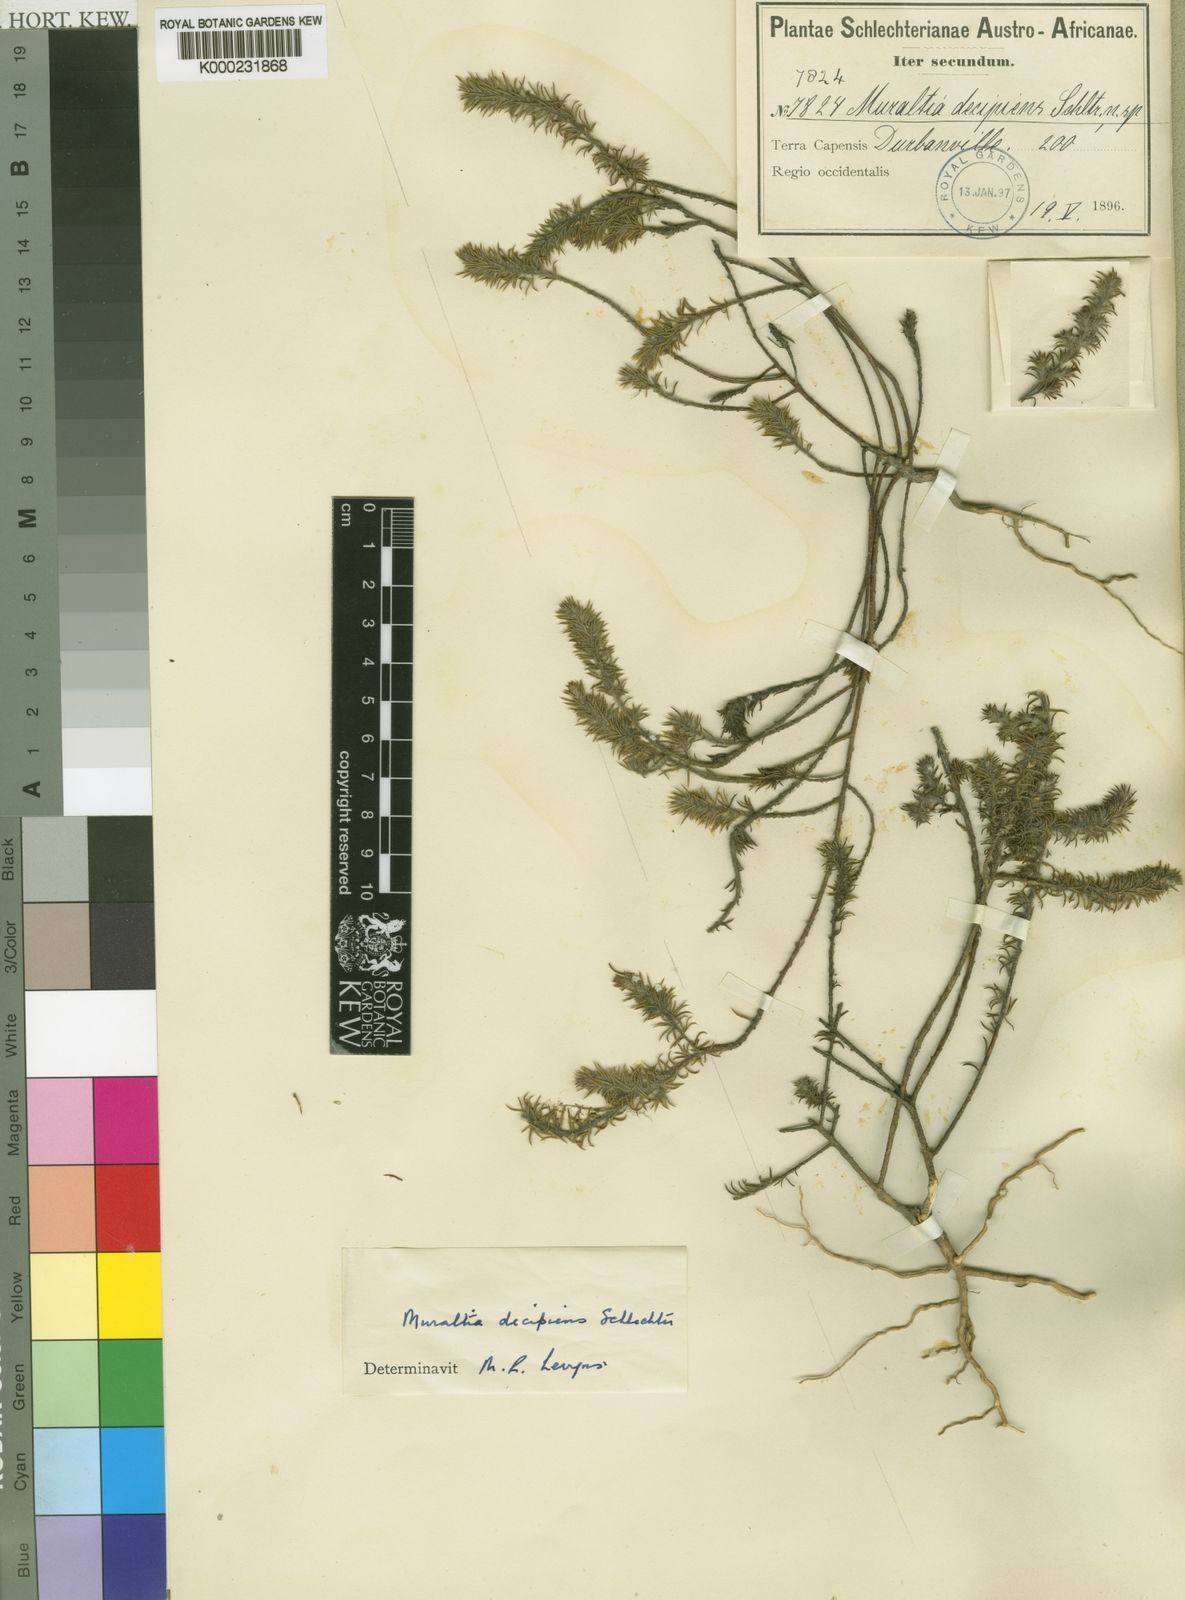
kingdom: Plantae
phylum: Tracheophyta
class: Magnoliopsida
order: Fabales
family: Polygalaceae
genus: Muraltia
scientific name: Muraltia decipiens
